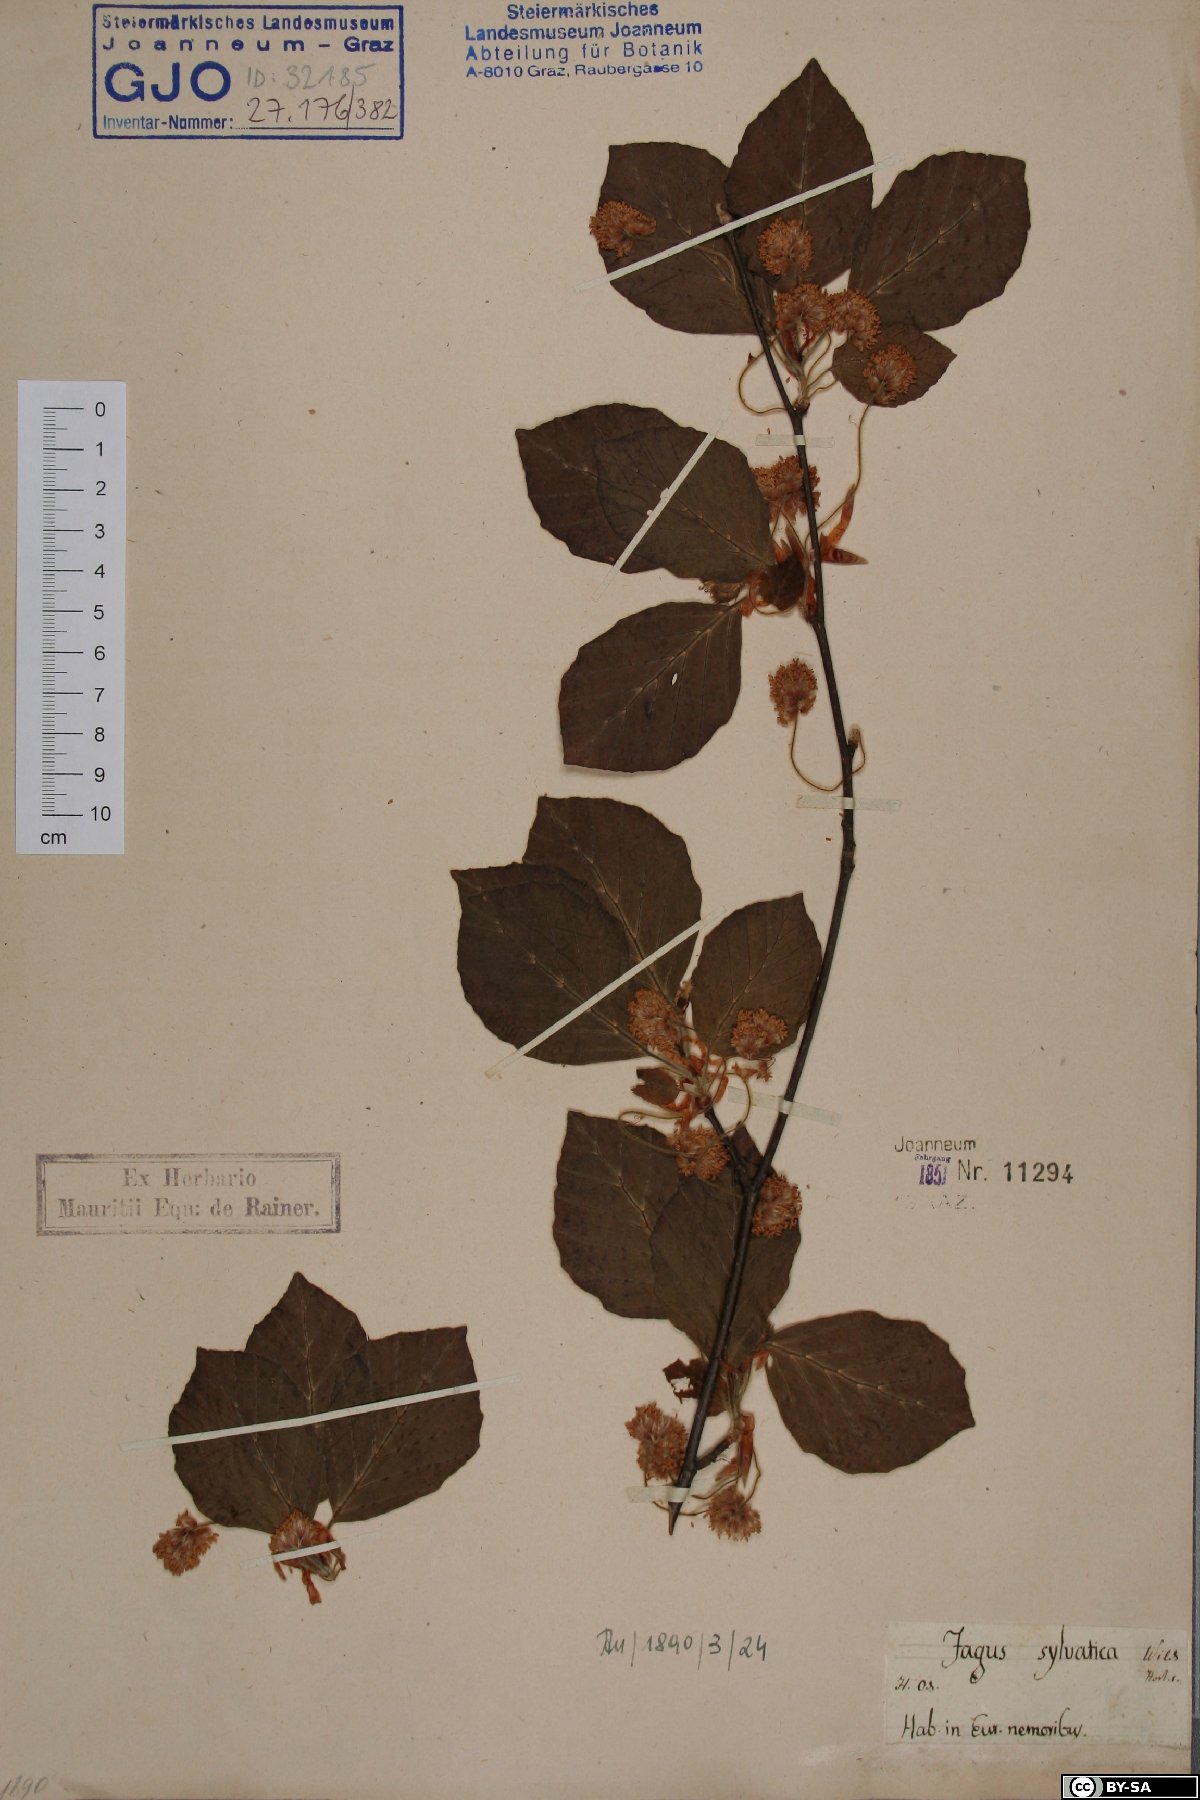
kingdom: Plantae
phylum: Tracheophyta
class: Magnoliopsida
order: Fagales
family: Fagaceae
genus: Fagus
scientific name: Fagus sylvatica
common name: Beech
